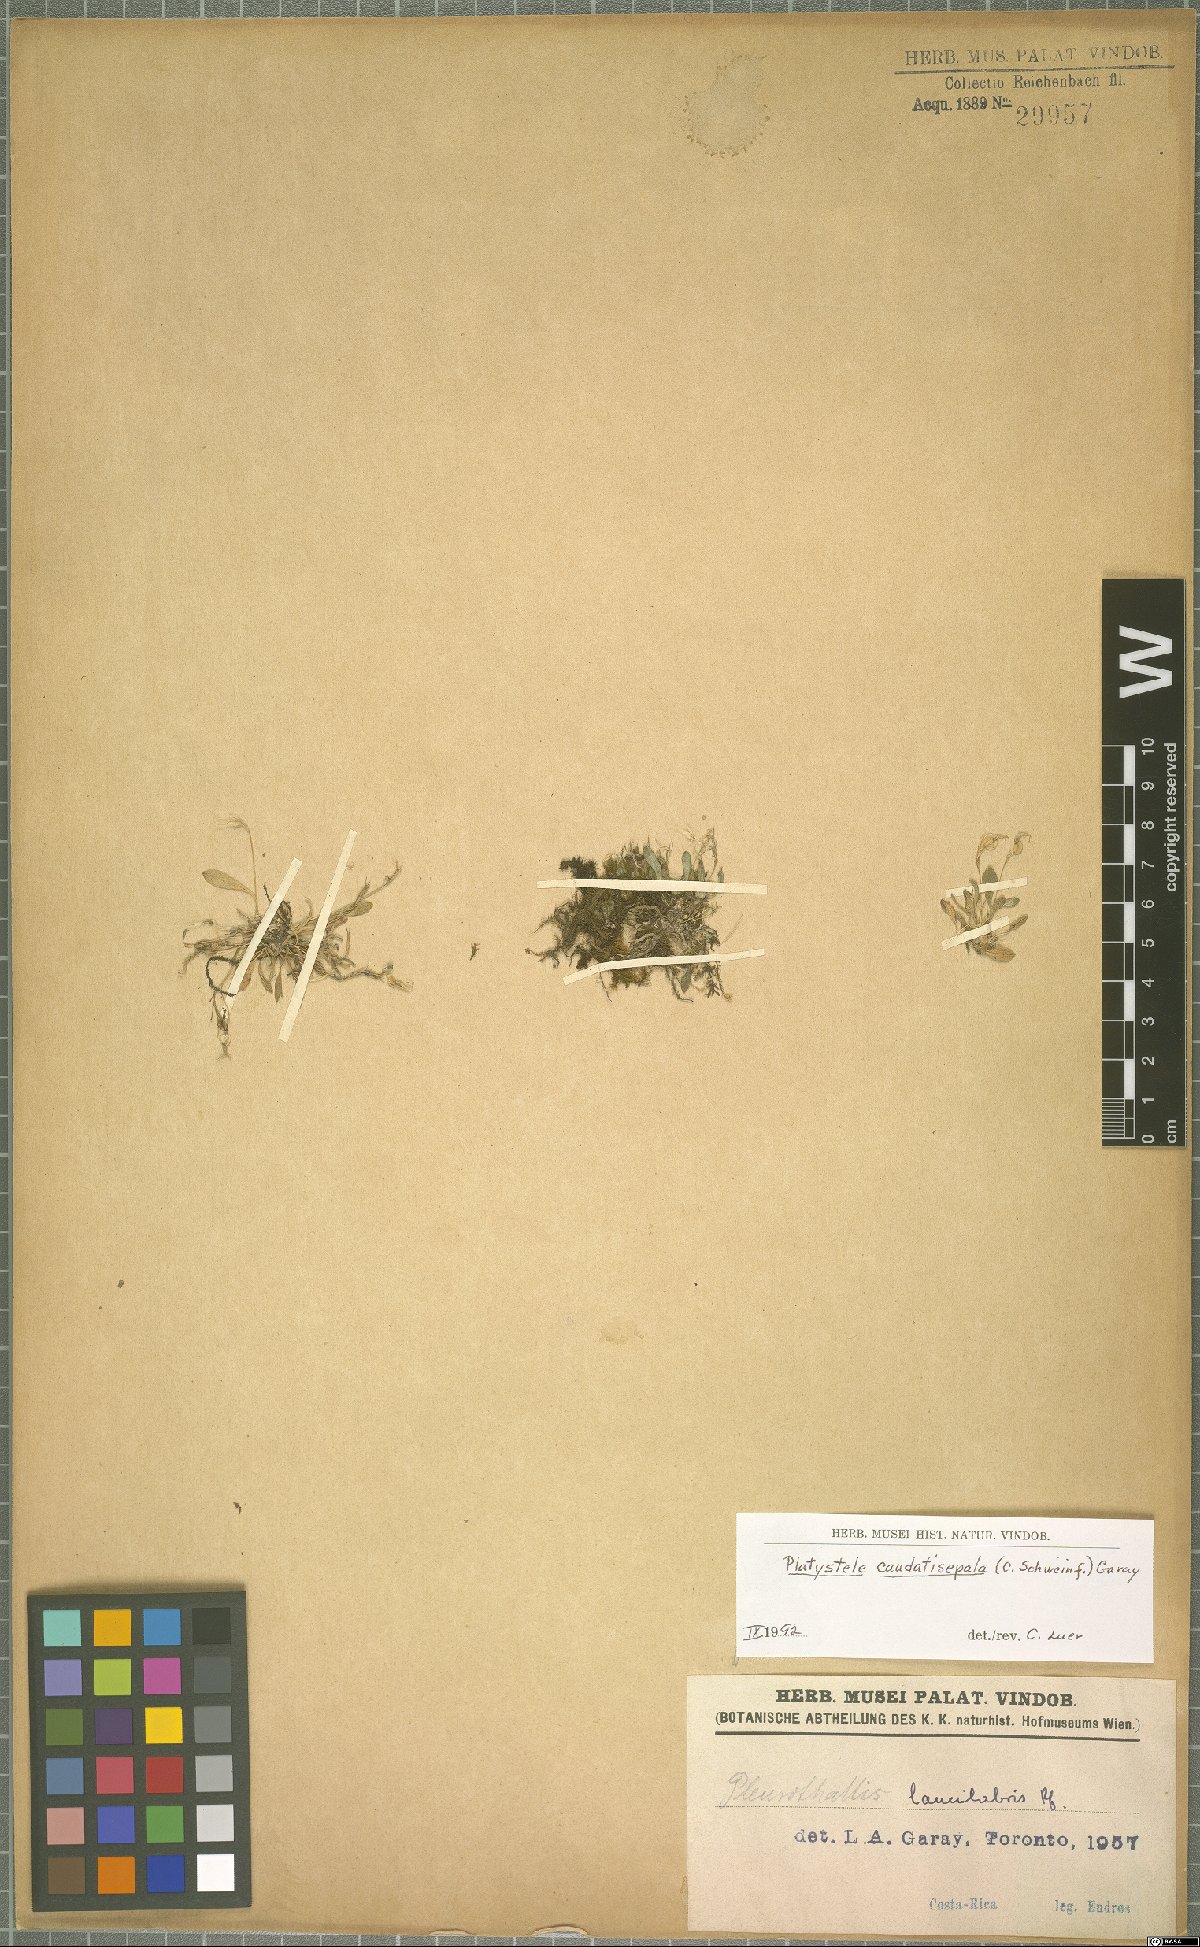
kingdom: Plantae
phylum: Tracheophyta
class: Liliopsida
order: Asparagales
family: Orchidaceae
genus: Platystele
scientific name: Platystele caudatisepala
